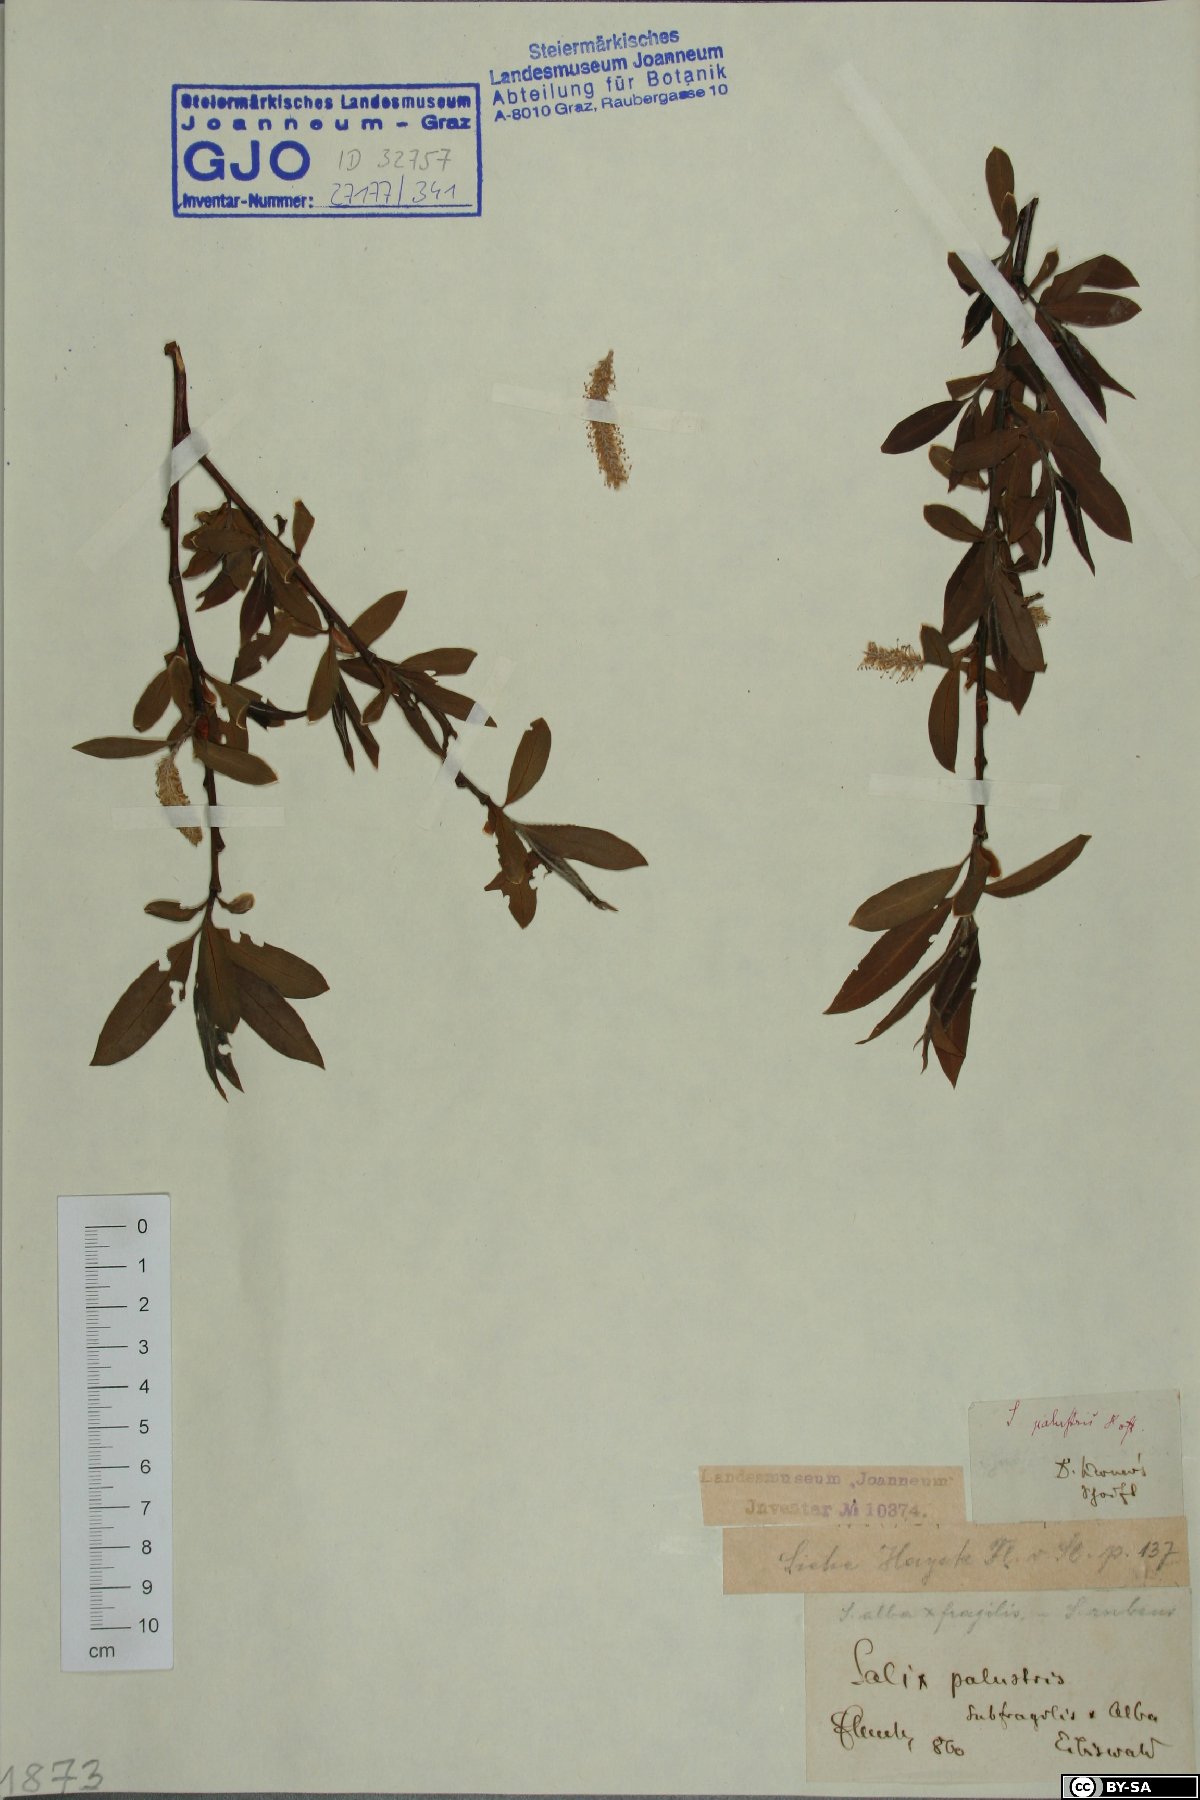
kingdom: Plantae
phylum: Tracheophyta
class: Magnoliopsida
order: Malpighiales
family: Salicaceae
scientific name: Salicaceae
